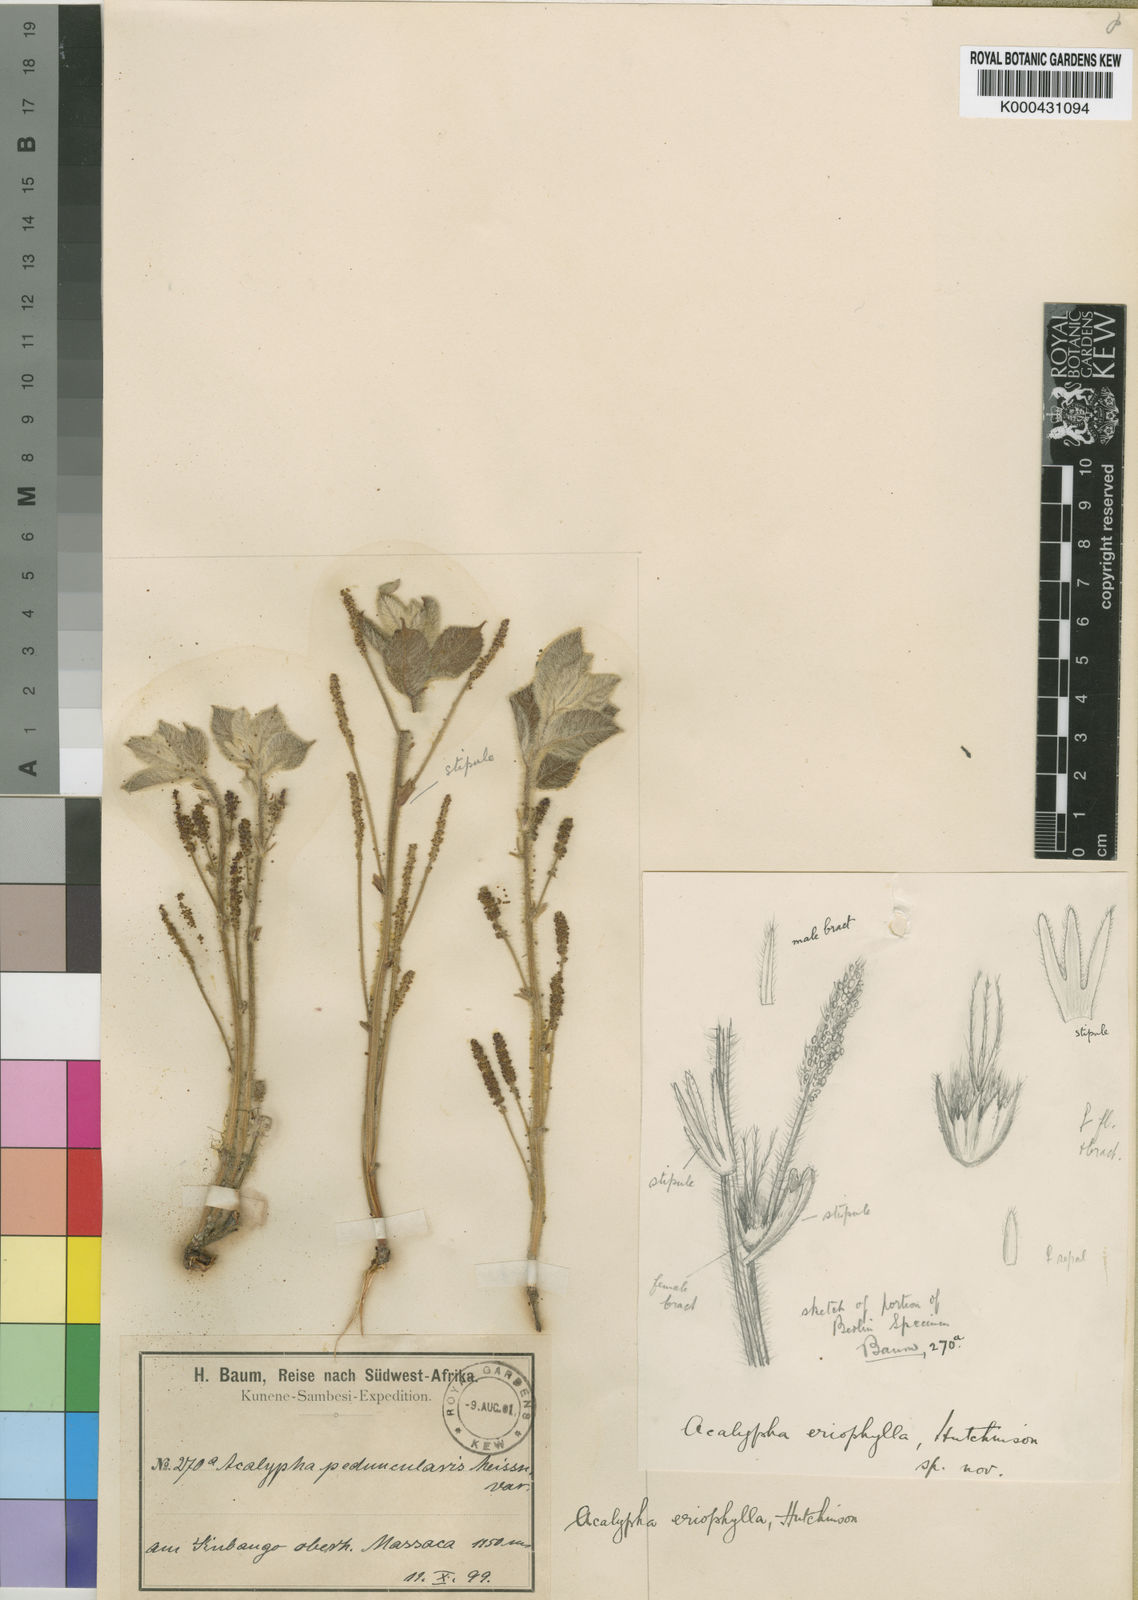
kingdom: Plantae
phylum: Tracheophyta
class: Magnoliopsida
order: Malpighiales
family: Euphorbiaceae
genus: Acalypha
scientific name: Acalypha eriophylla
